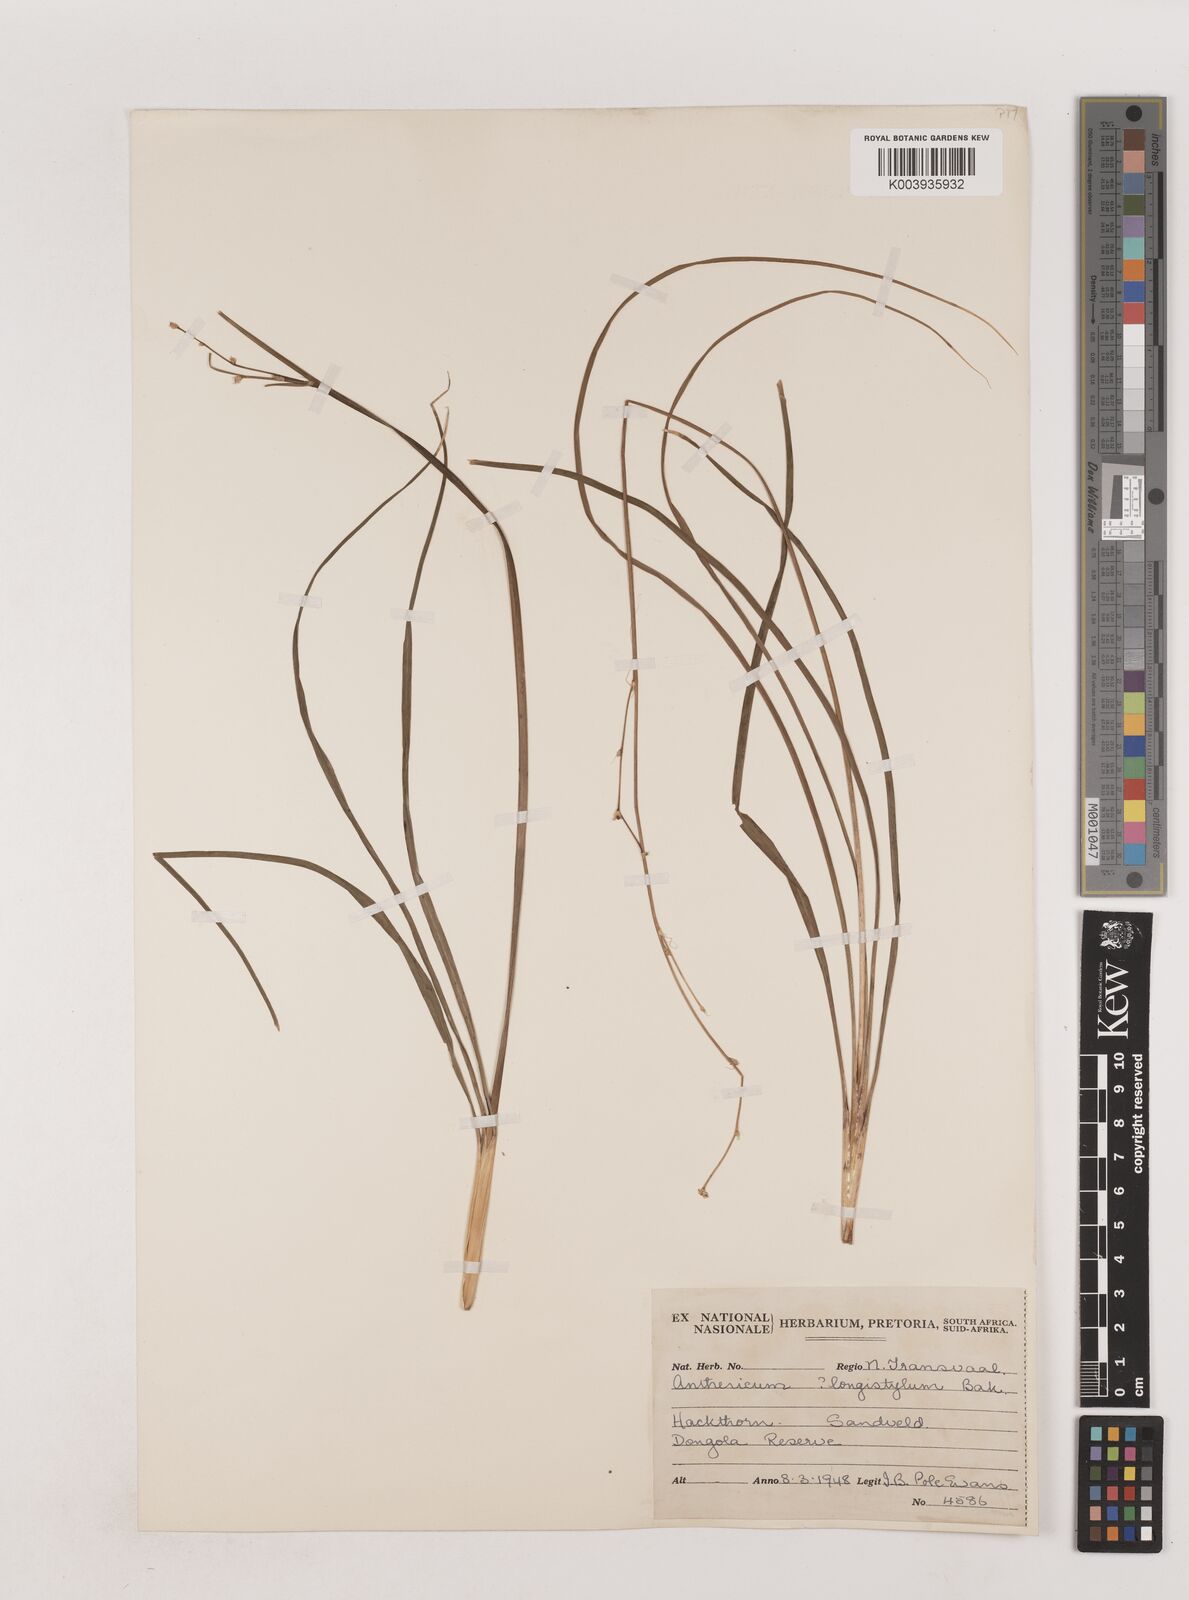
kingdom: Plantae
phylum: Tracheophyta
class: Liliopsida
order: Asparagales
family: Asparagaceae
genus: Chlorophytum
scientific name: Chlorophytum angulicaule
